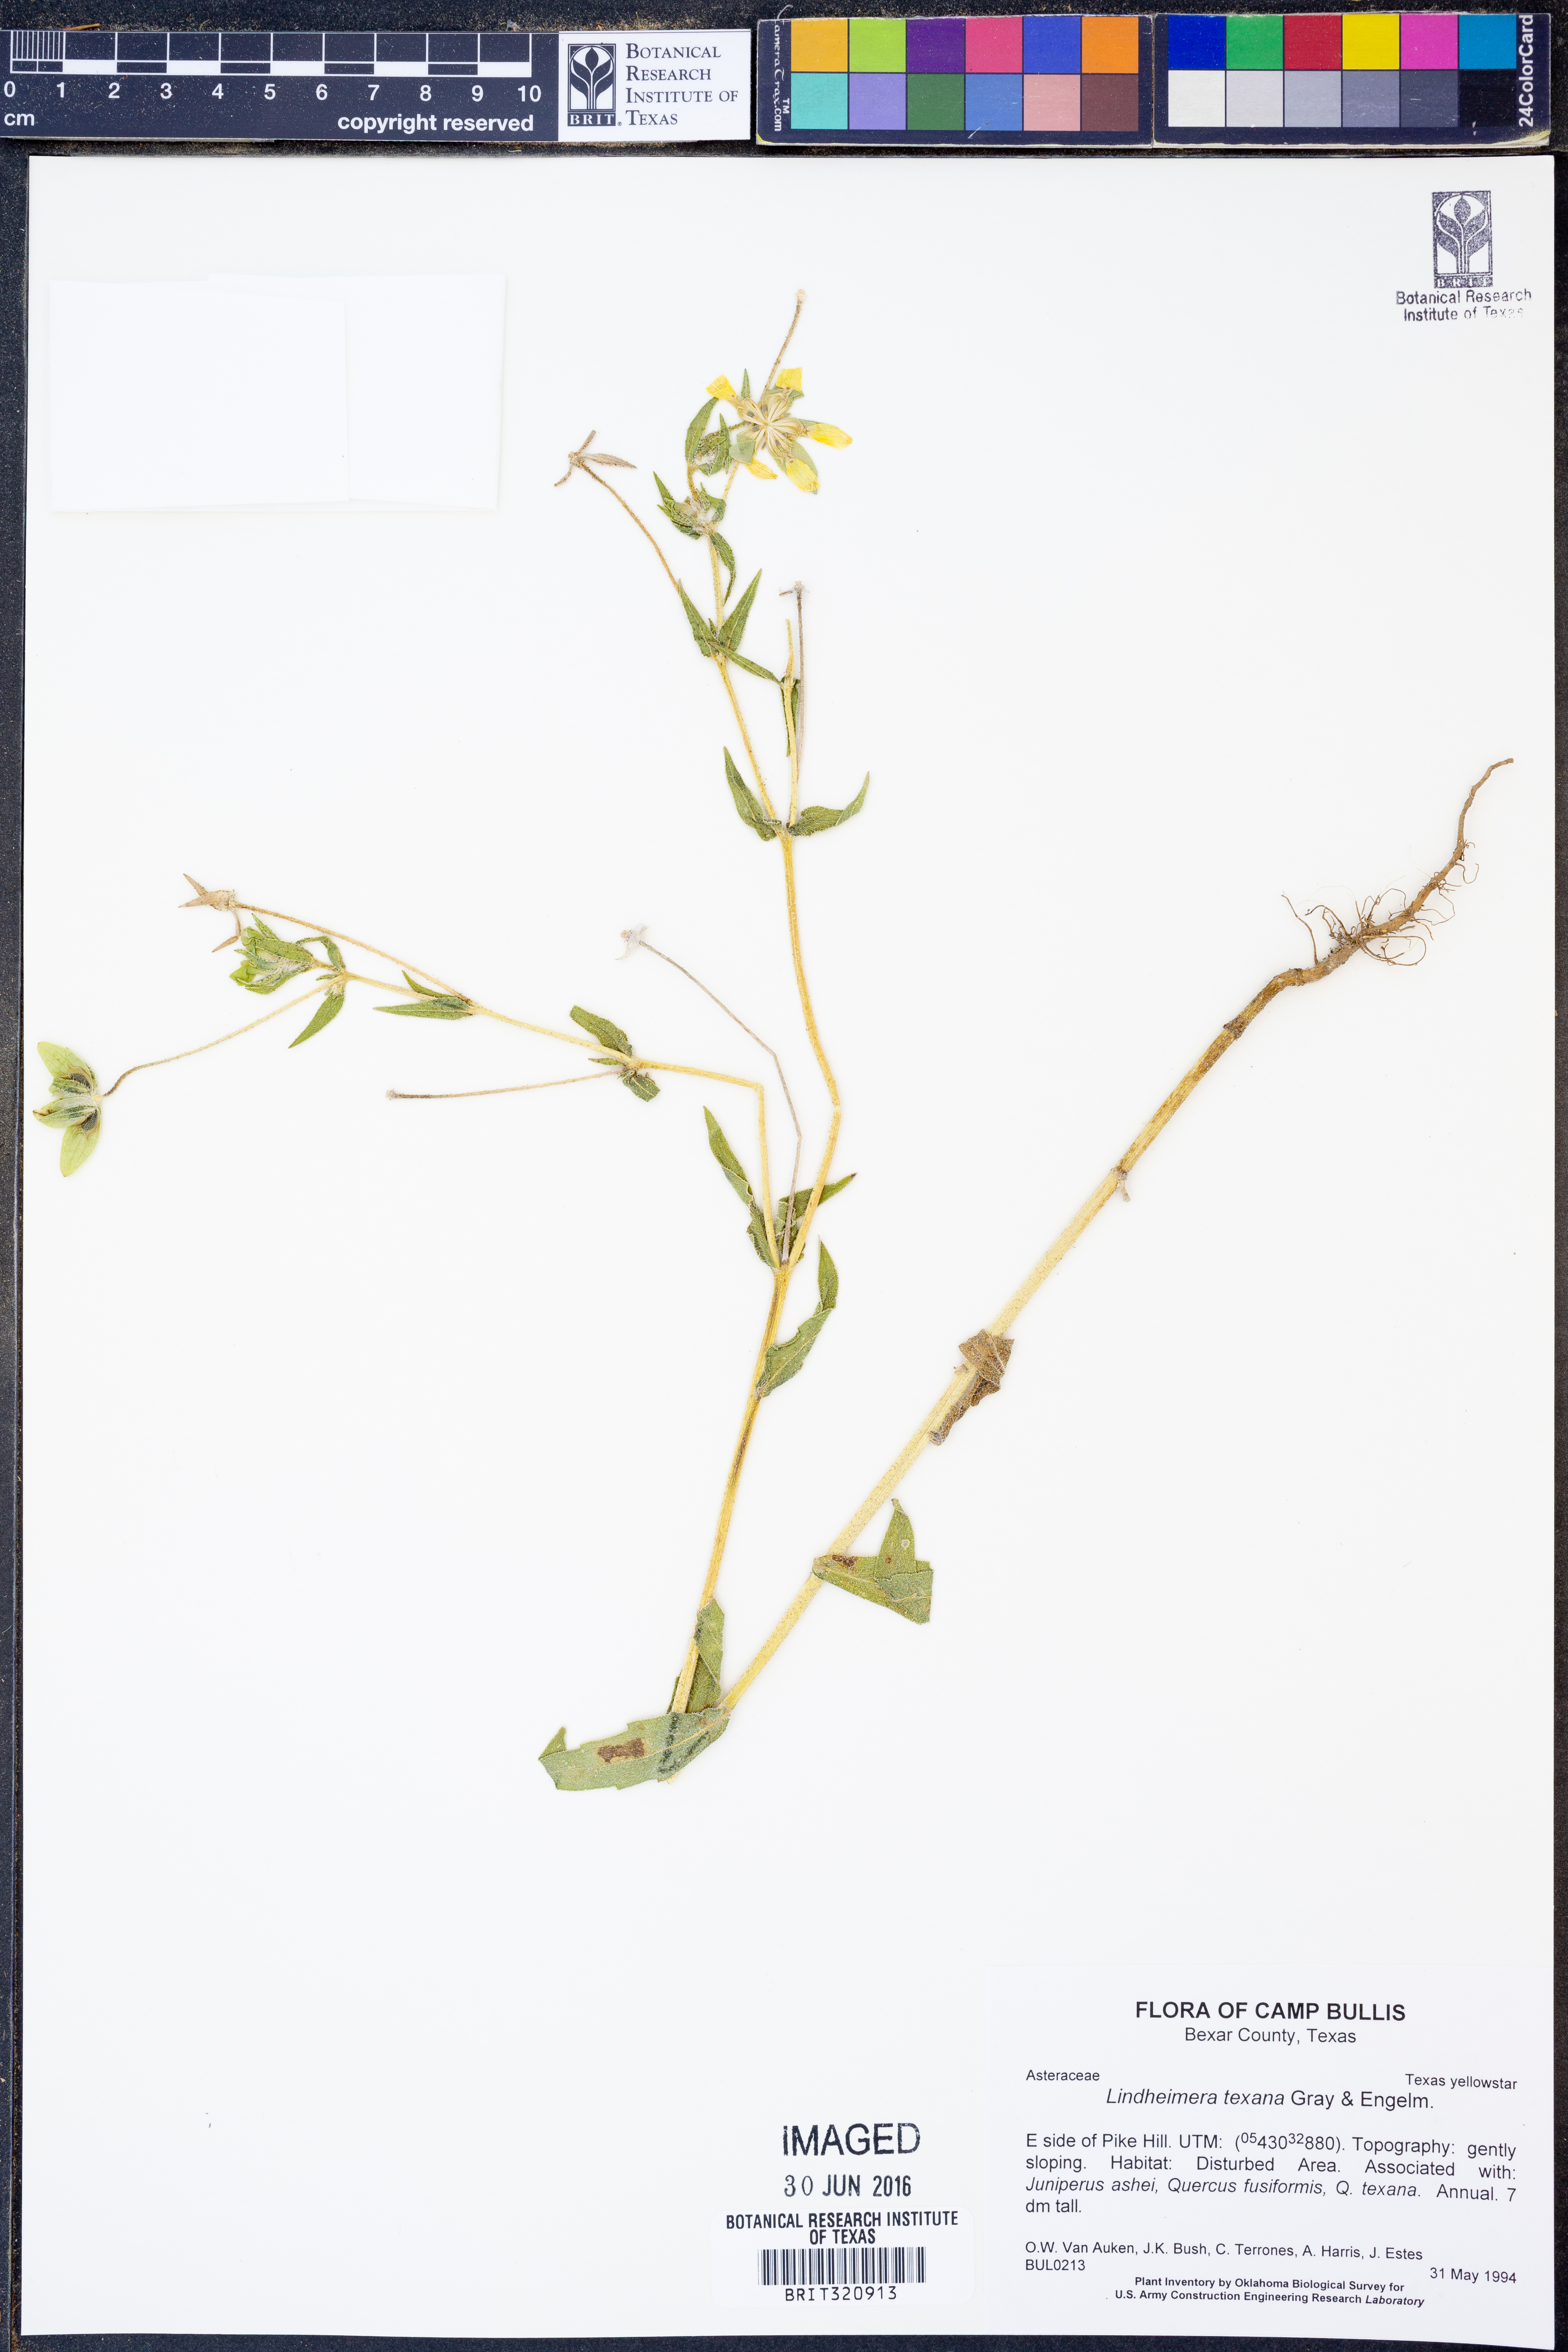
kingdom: Plantae
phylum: Tracheophyta
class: Magnoliopsida
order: Asterales
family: Asteraceae
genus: Lindheimera
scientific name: Lindheimera texana
